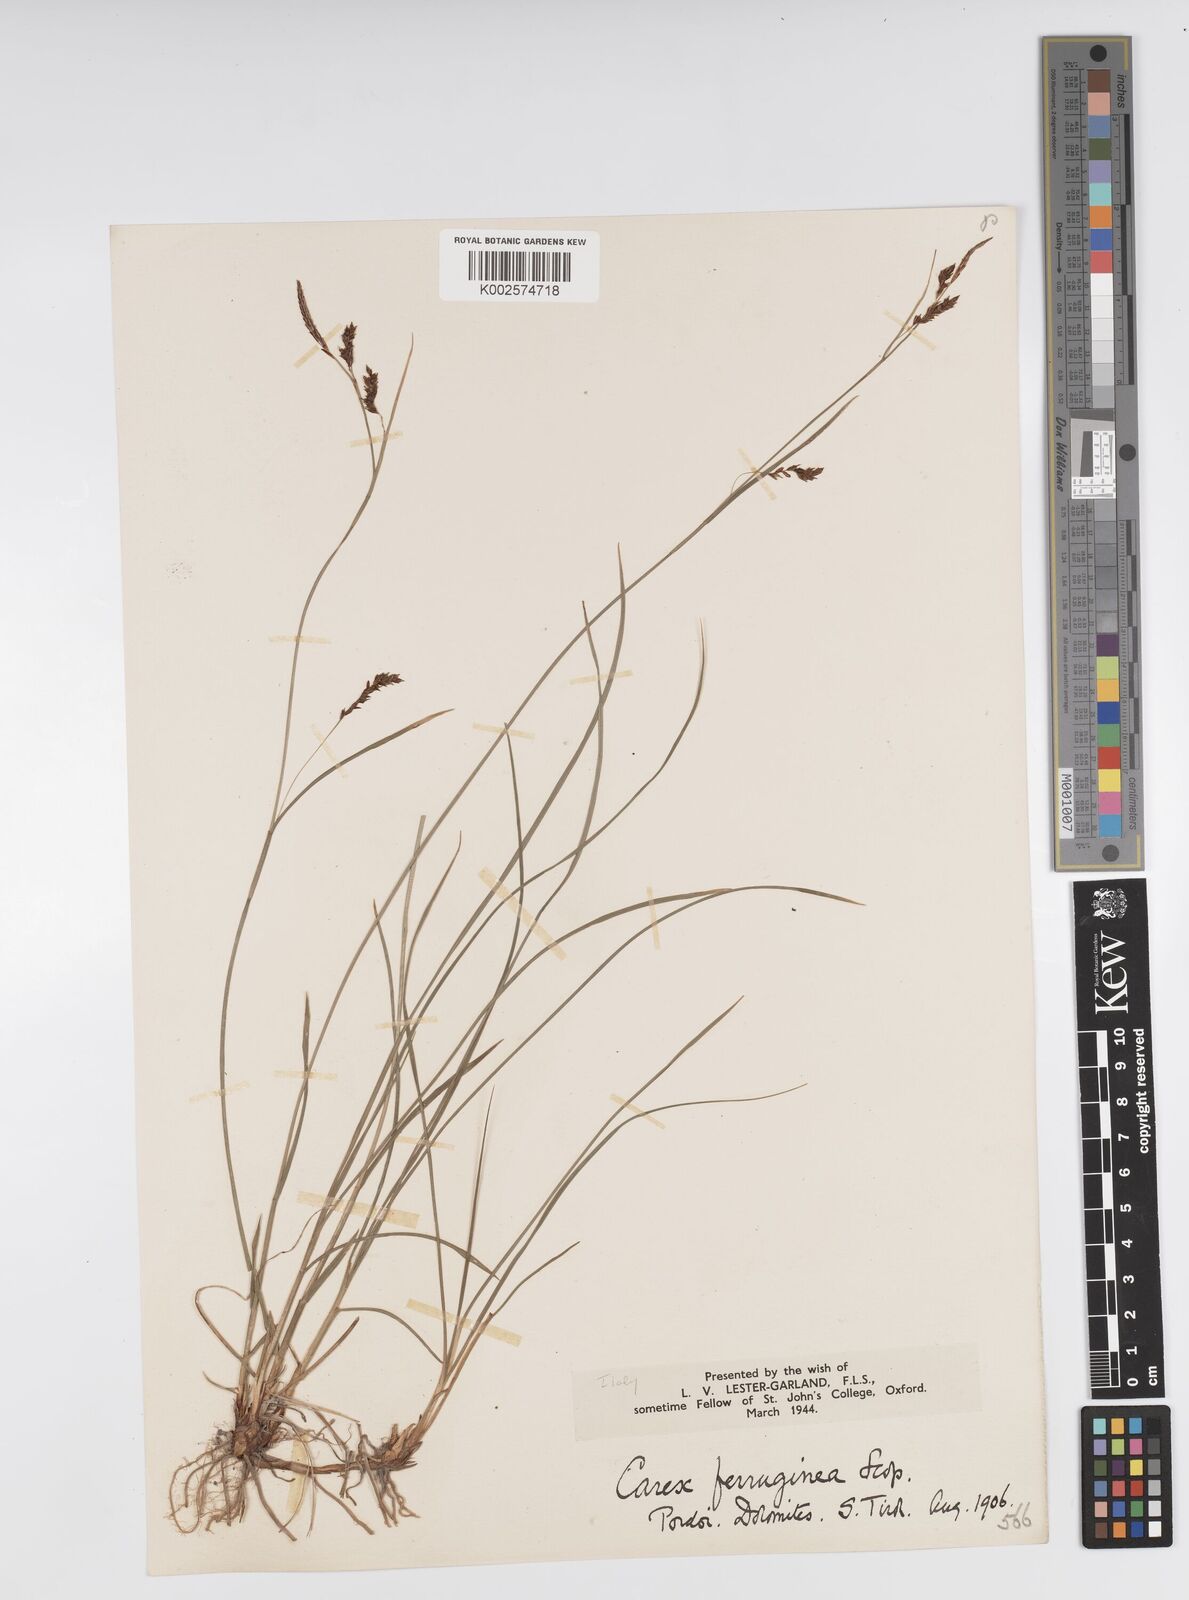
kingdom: Plantae
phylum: Tracheophyta
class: Liliopsida
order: Poales
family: Cyperaceae
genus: Carex
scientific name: Carex ferruginea
